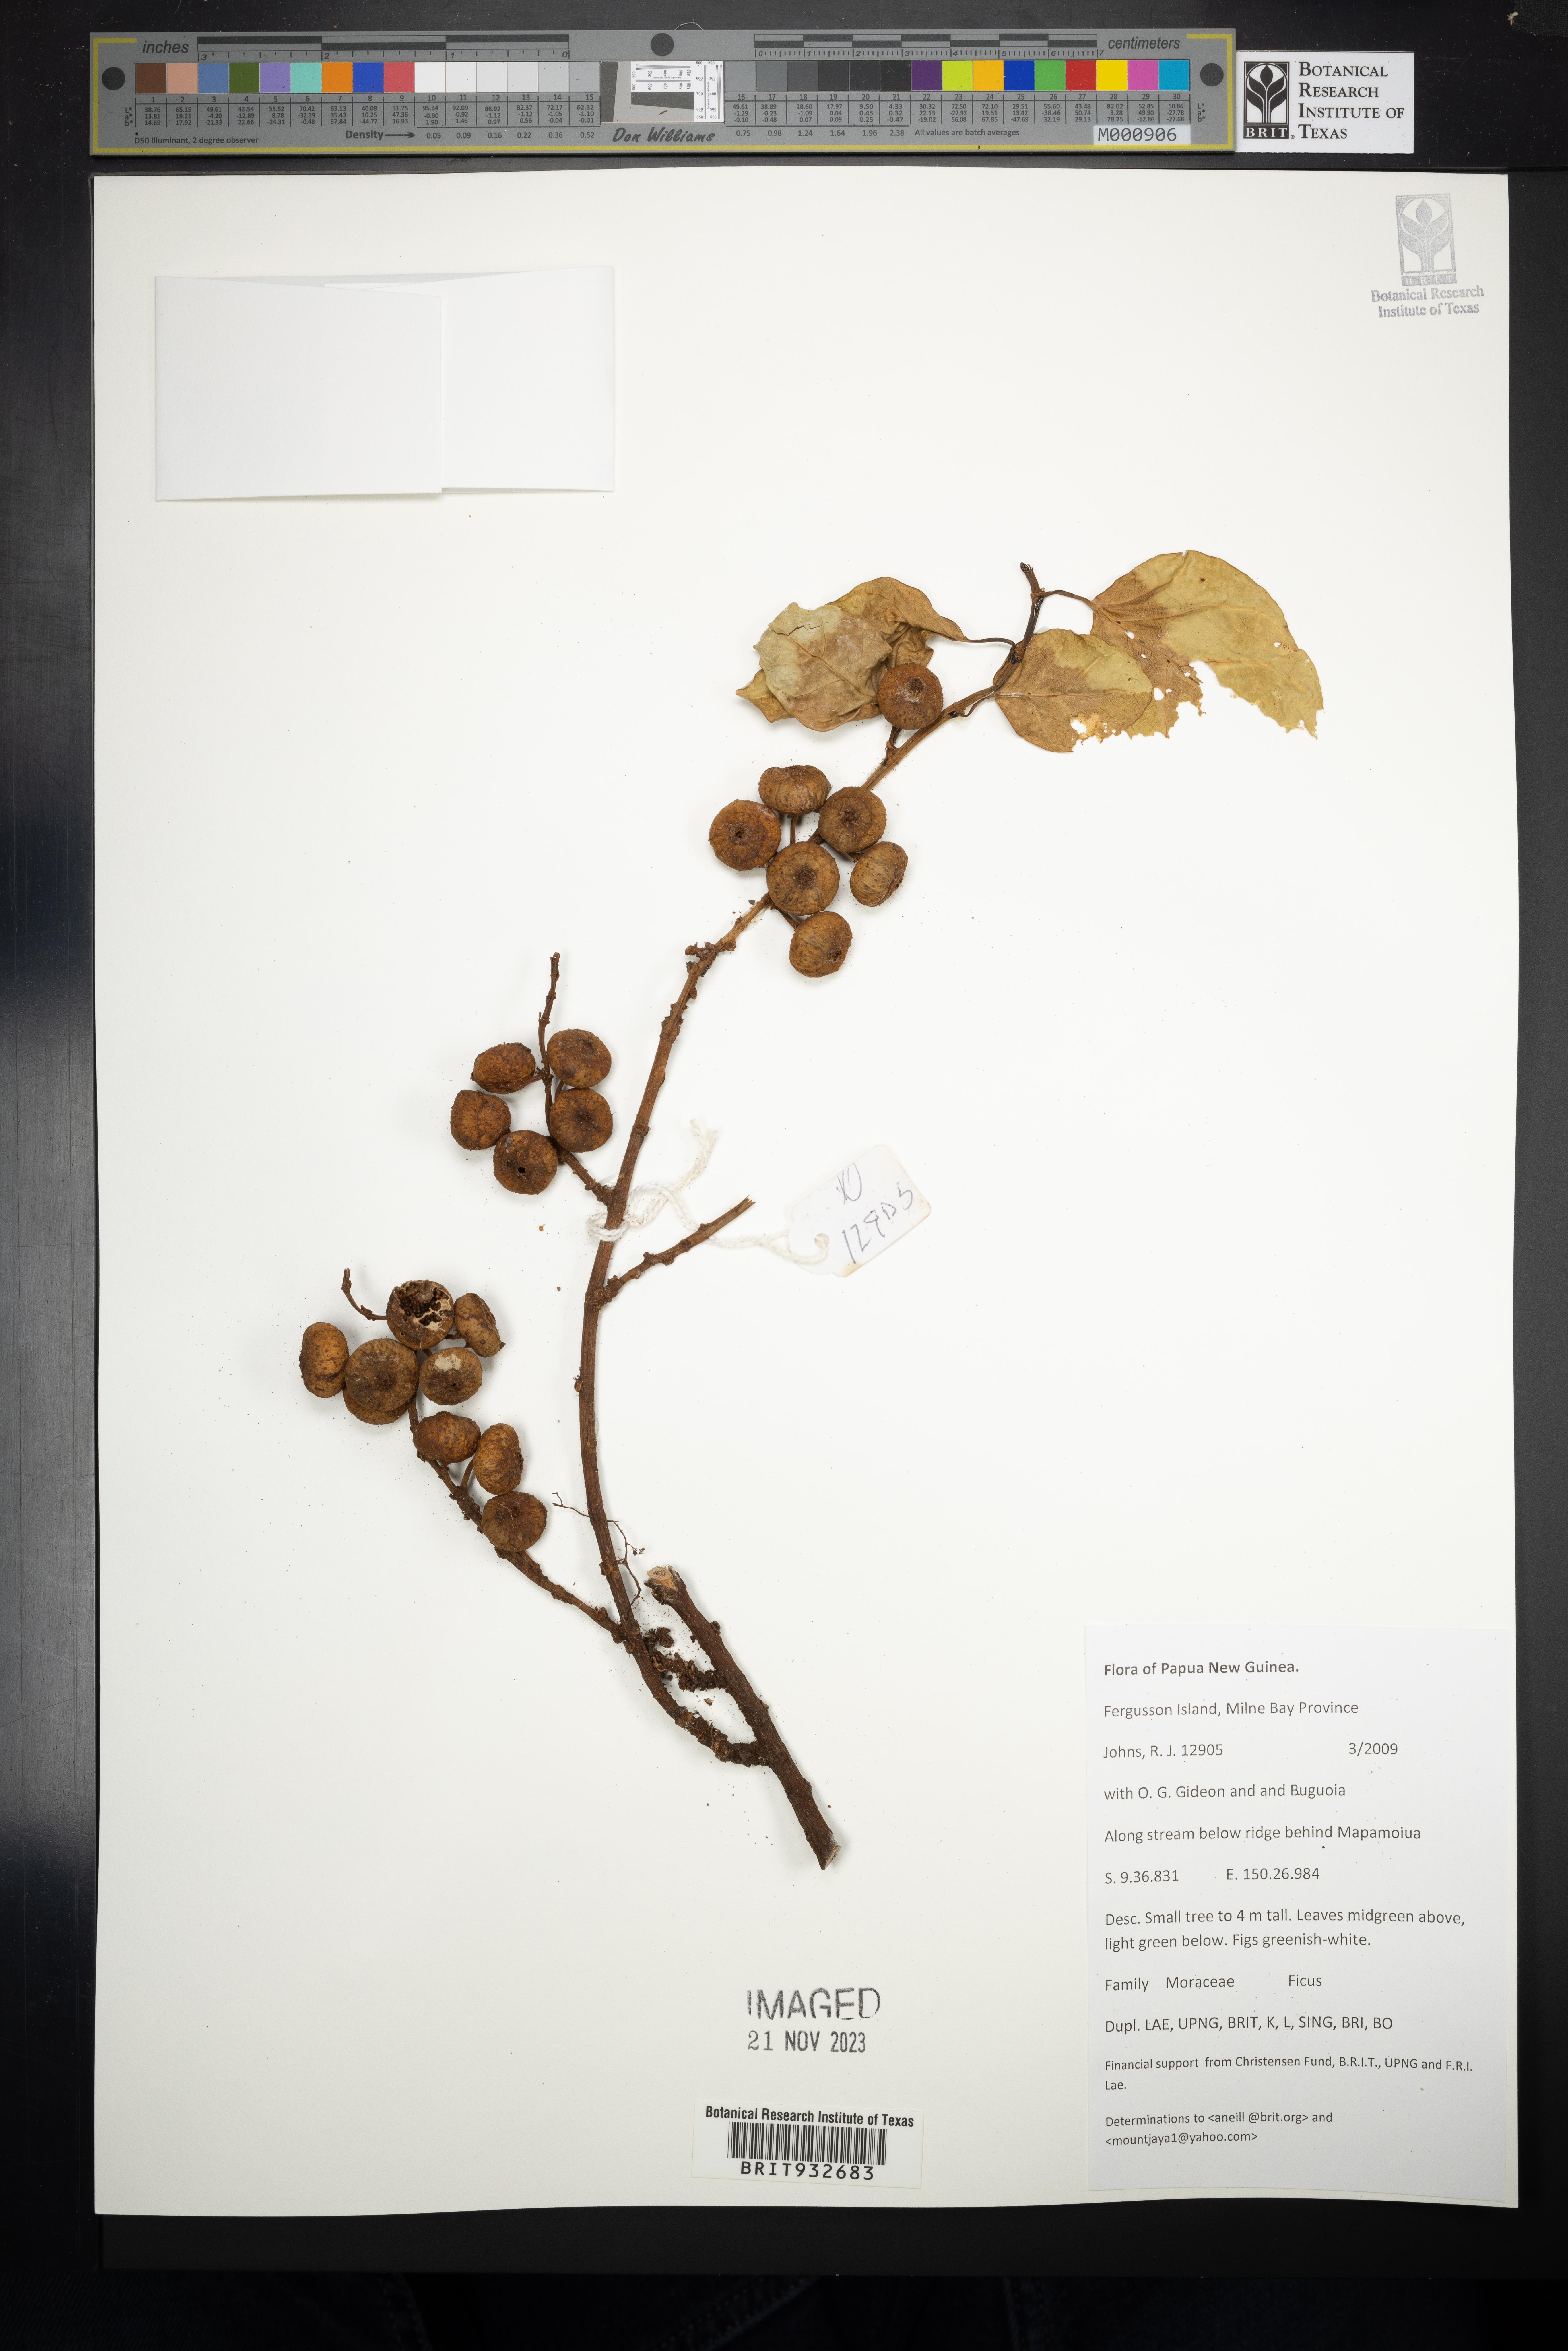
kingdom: Plantae
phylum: Tracheophyta
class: Magnoliopsida
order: Rosales
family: Moraceae
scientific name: Moraceae
